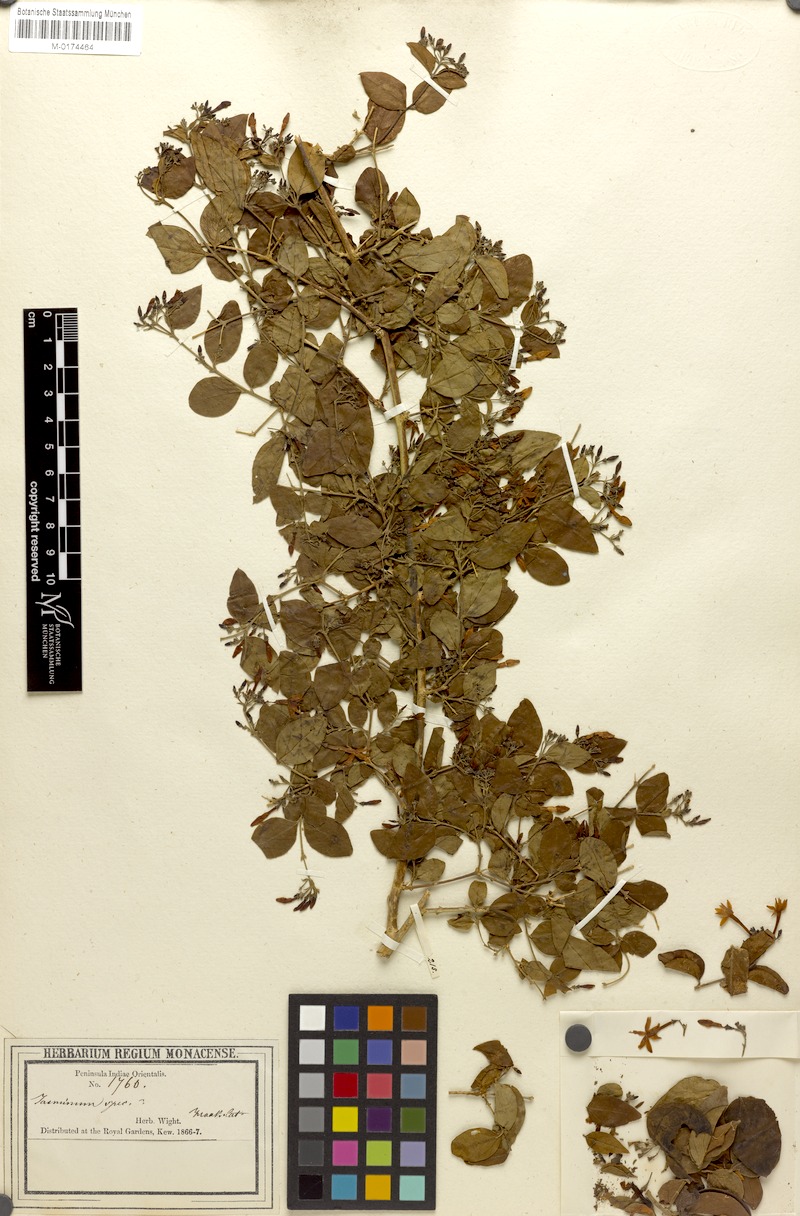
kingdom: Plantae
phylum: Tracheophyta
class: Magnoliopsida
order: Lamiales
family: Oleaceae
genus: Jasminum
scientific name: Jasminum auriculatum
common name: Needle-flower jasmine
